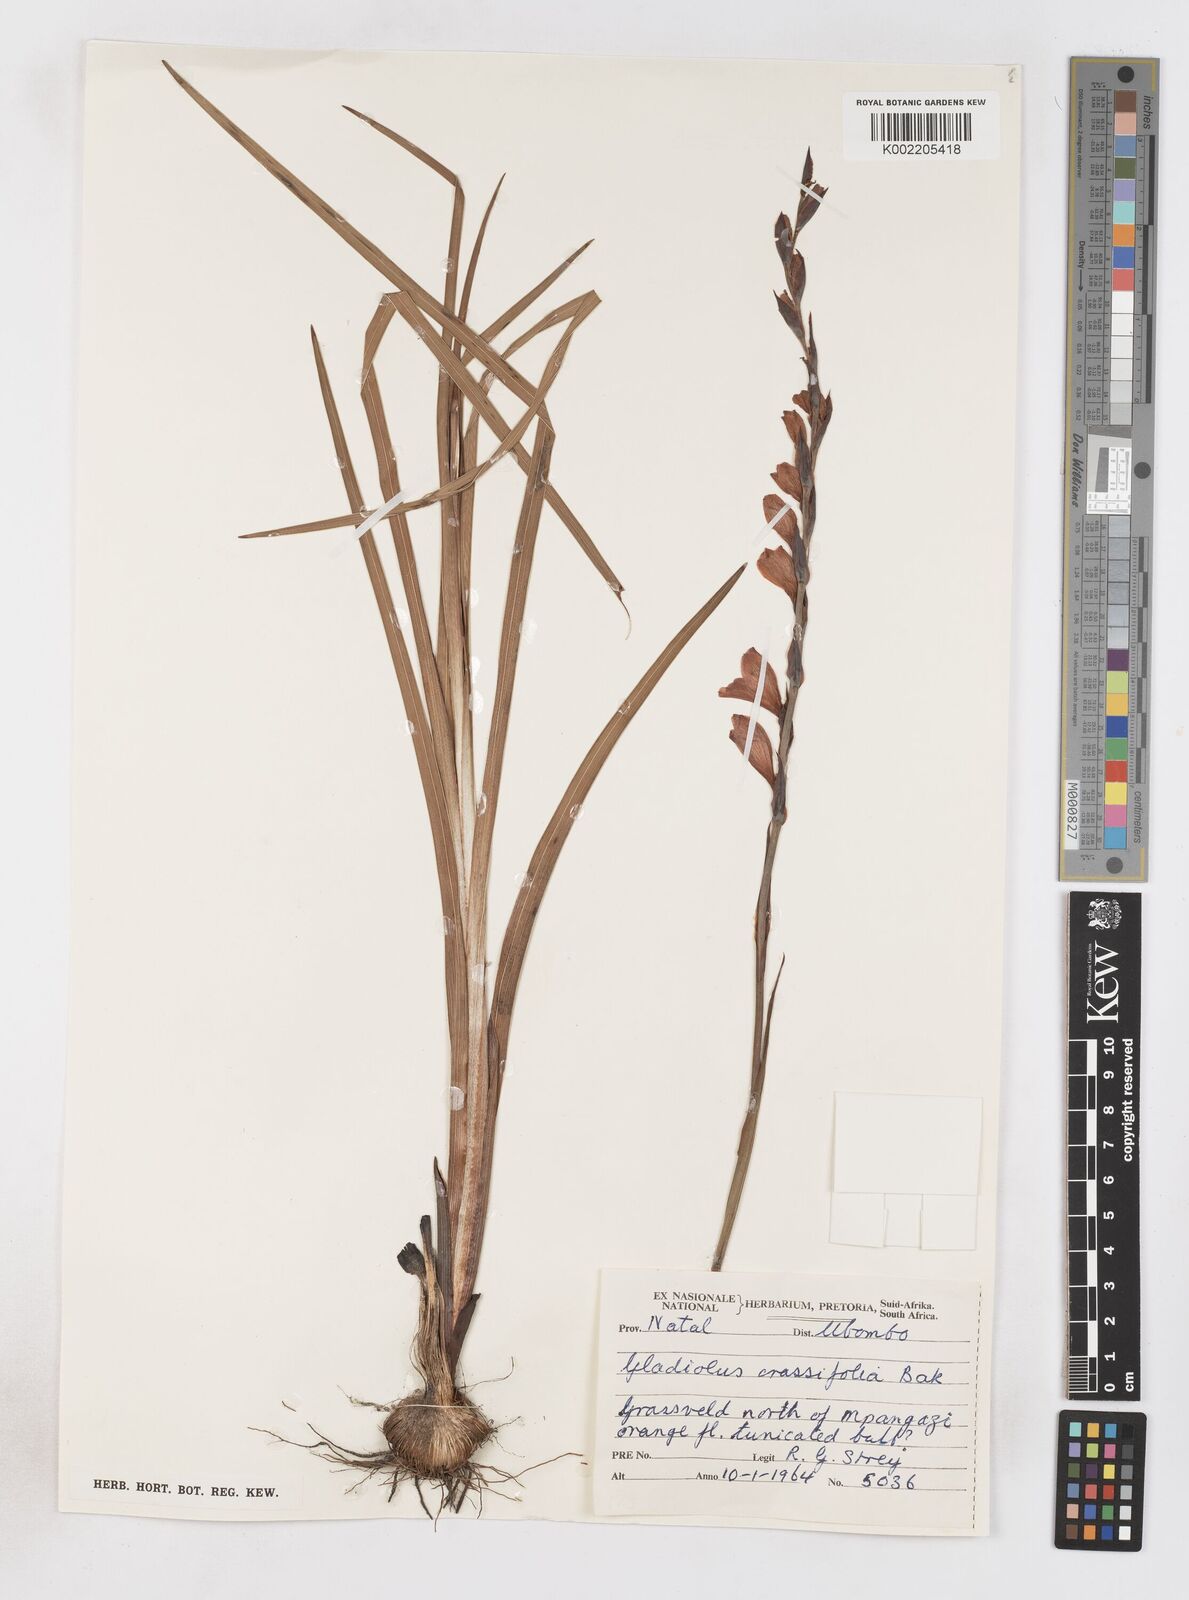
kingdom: Plantae
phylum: Tracheophyta
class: Liliopsida
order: Asparagales
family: Iridaceae
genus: Gladiolus
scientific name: Gladiolus densiflorus
